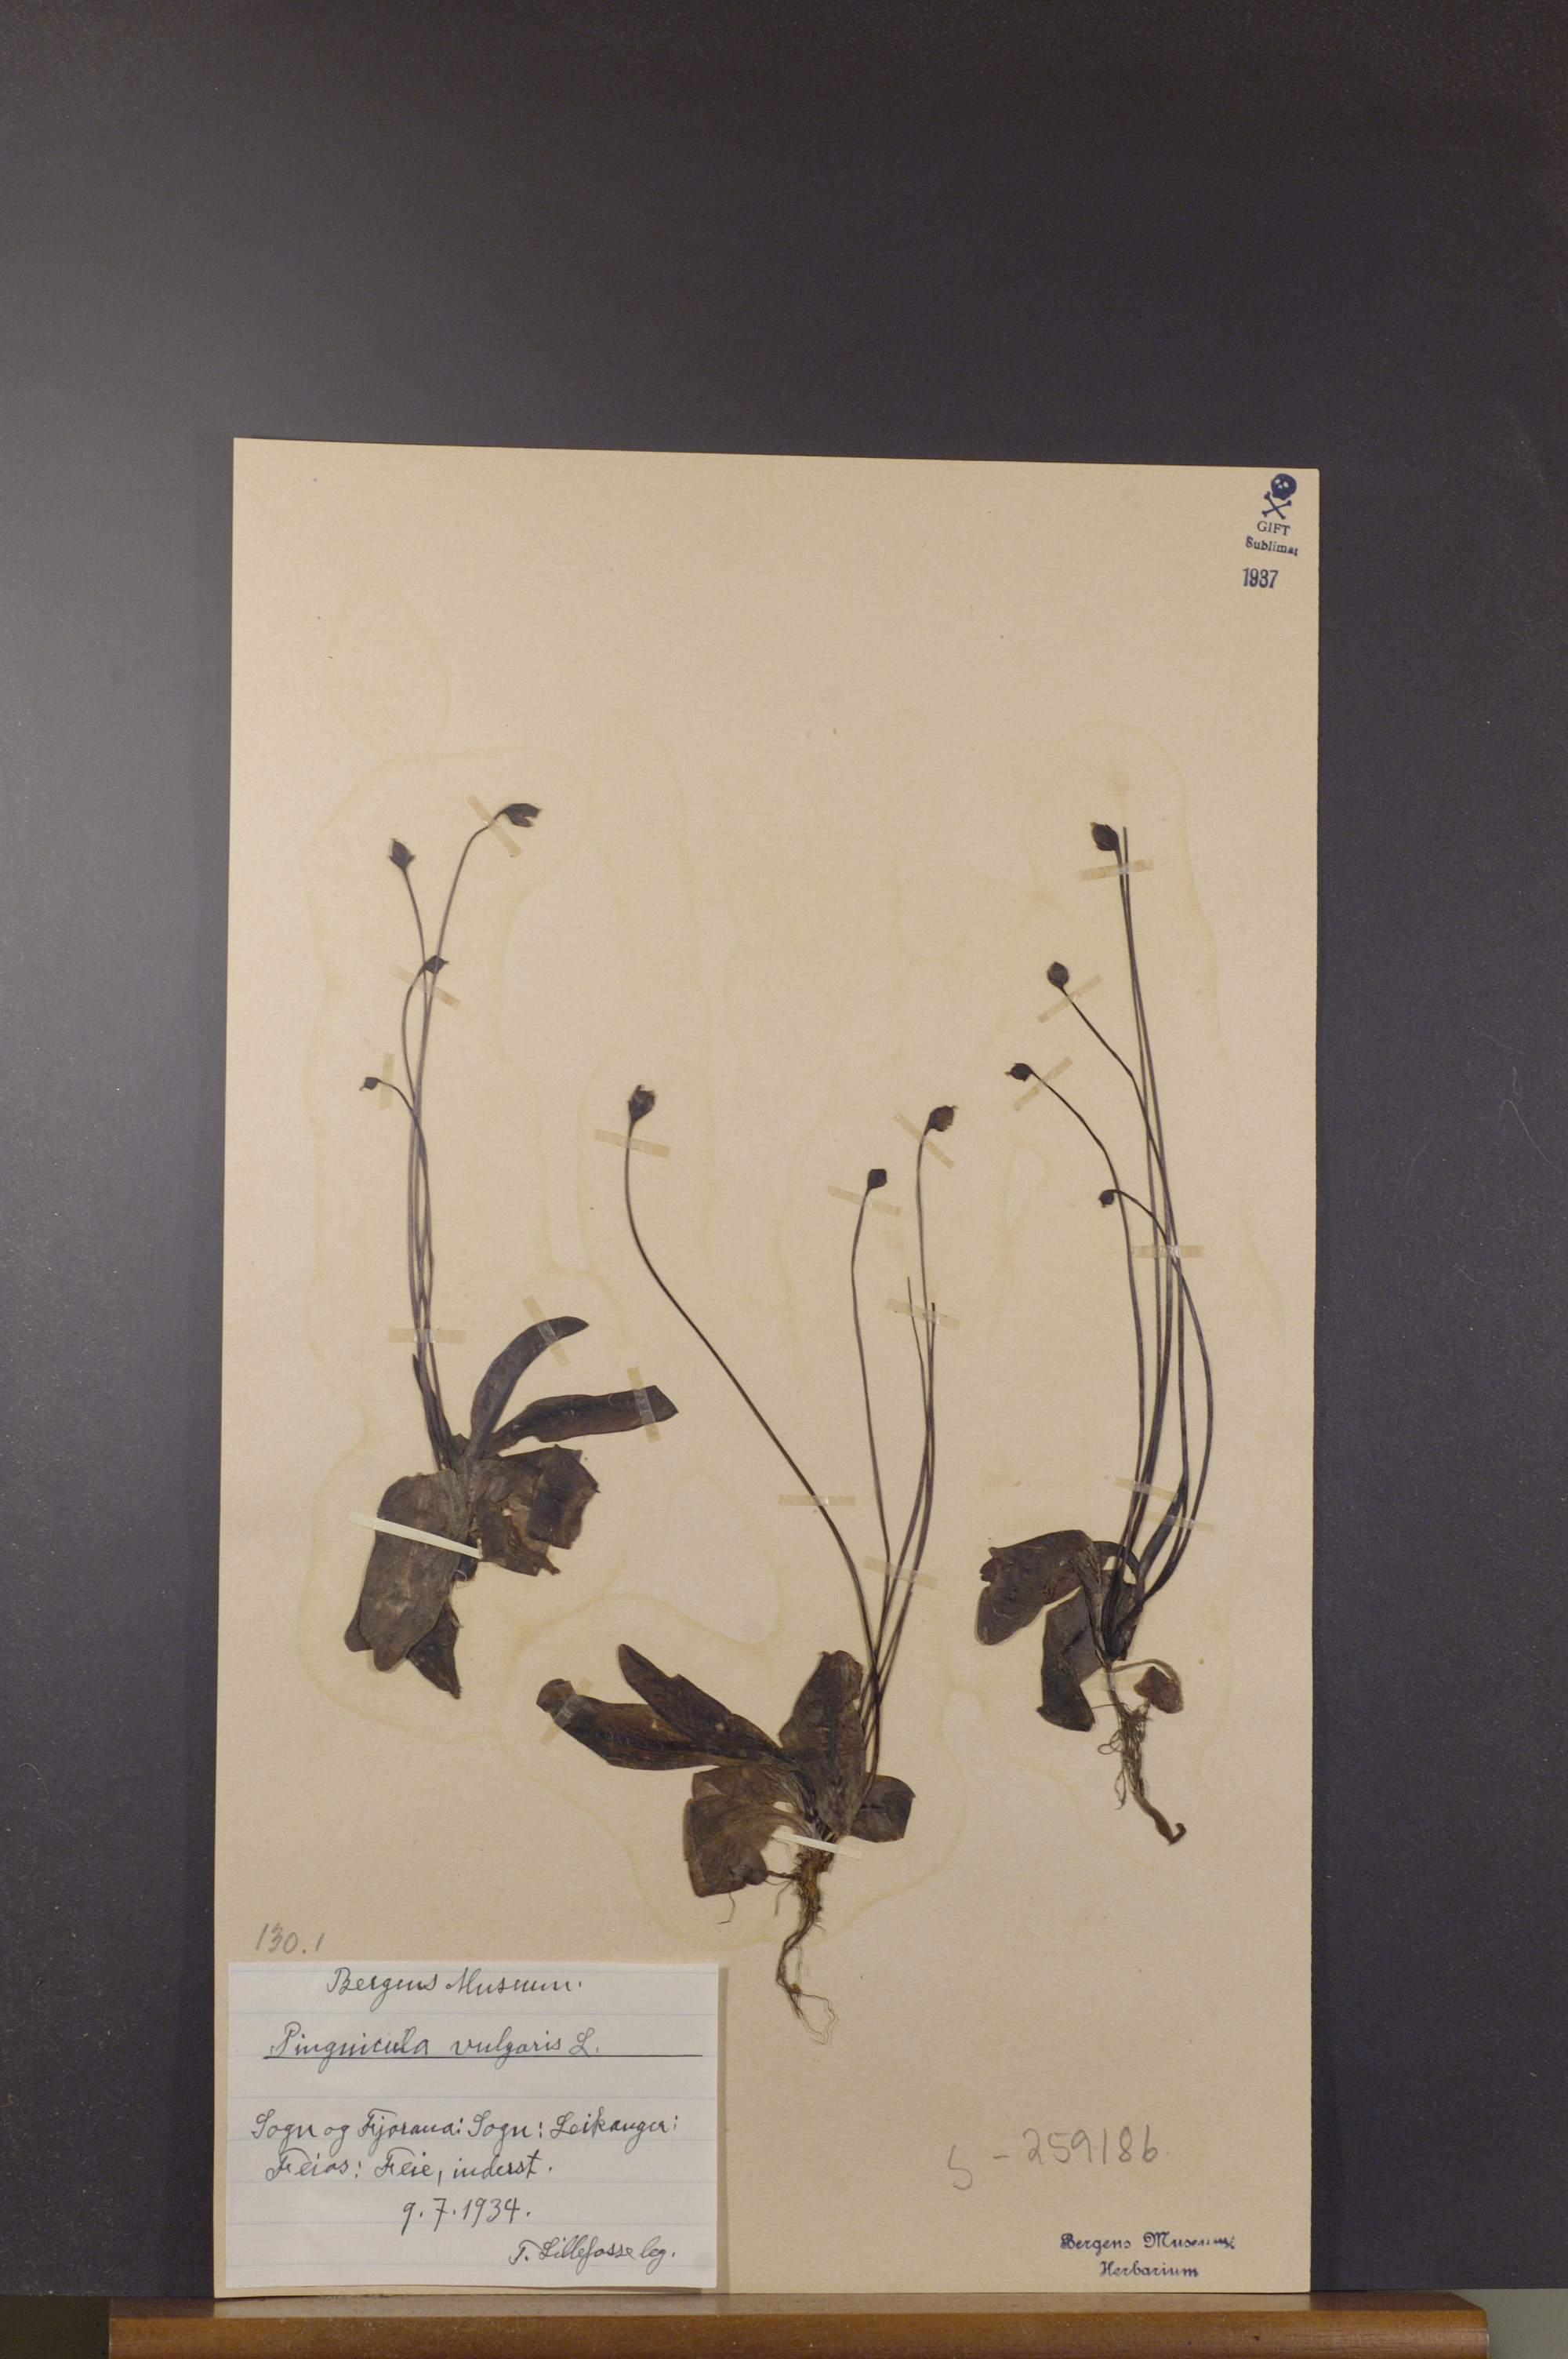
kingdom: Plantae
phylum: Tracheophyta
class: Magnoliopsida
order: Lamiales
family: Lentibulariaceae
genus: Pinguicula
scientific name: Pinguicula vulgaris
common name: Common butterwort
